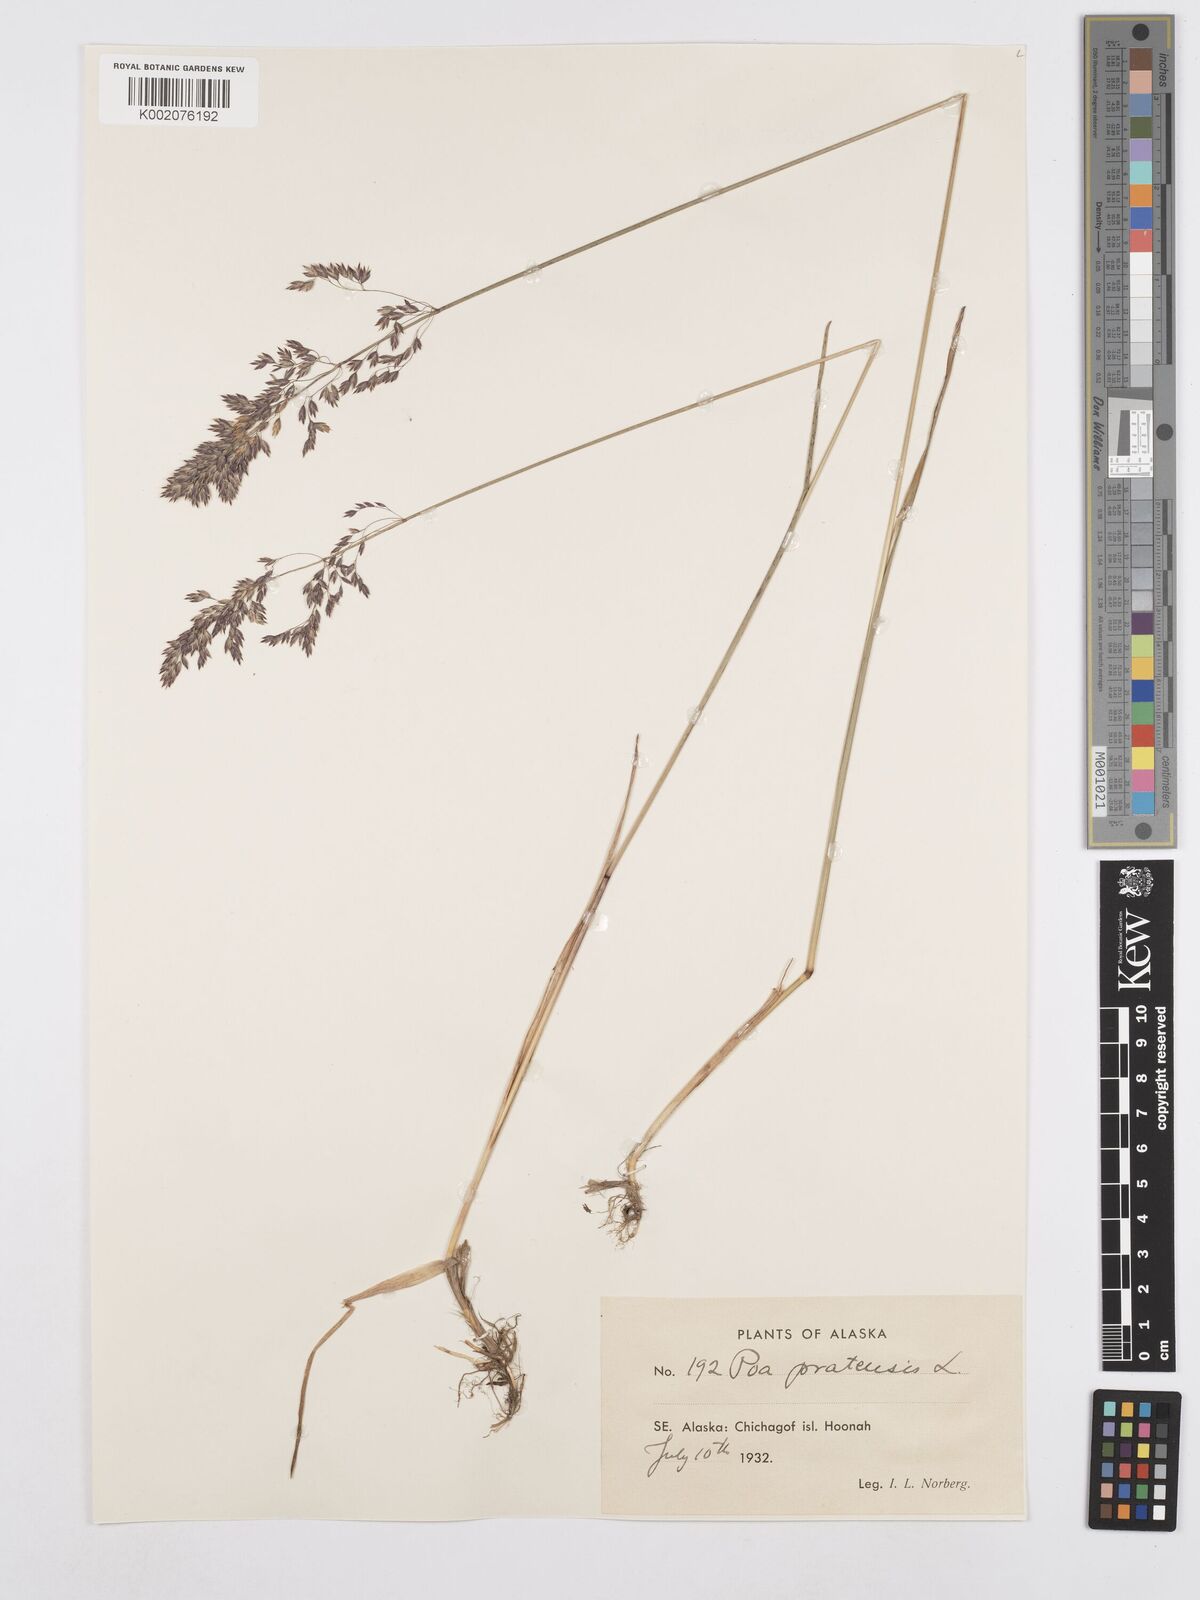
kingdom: Plantae
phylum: Tracheophyta
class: Liliopsida
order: Poales
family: Poaceae
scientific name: Poaceae
